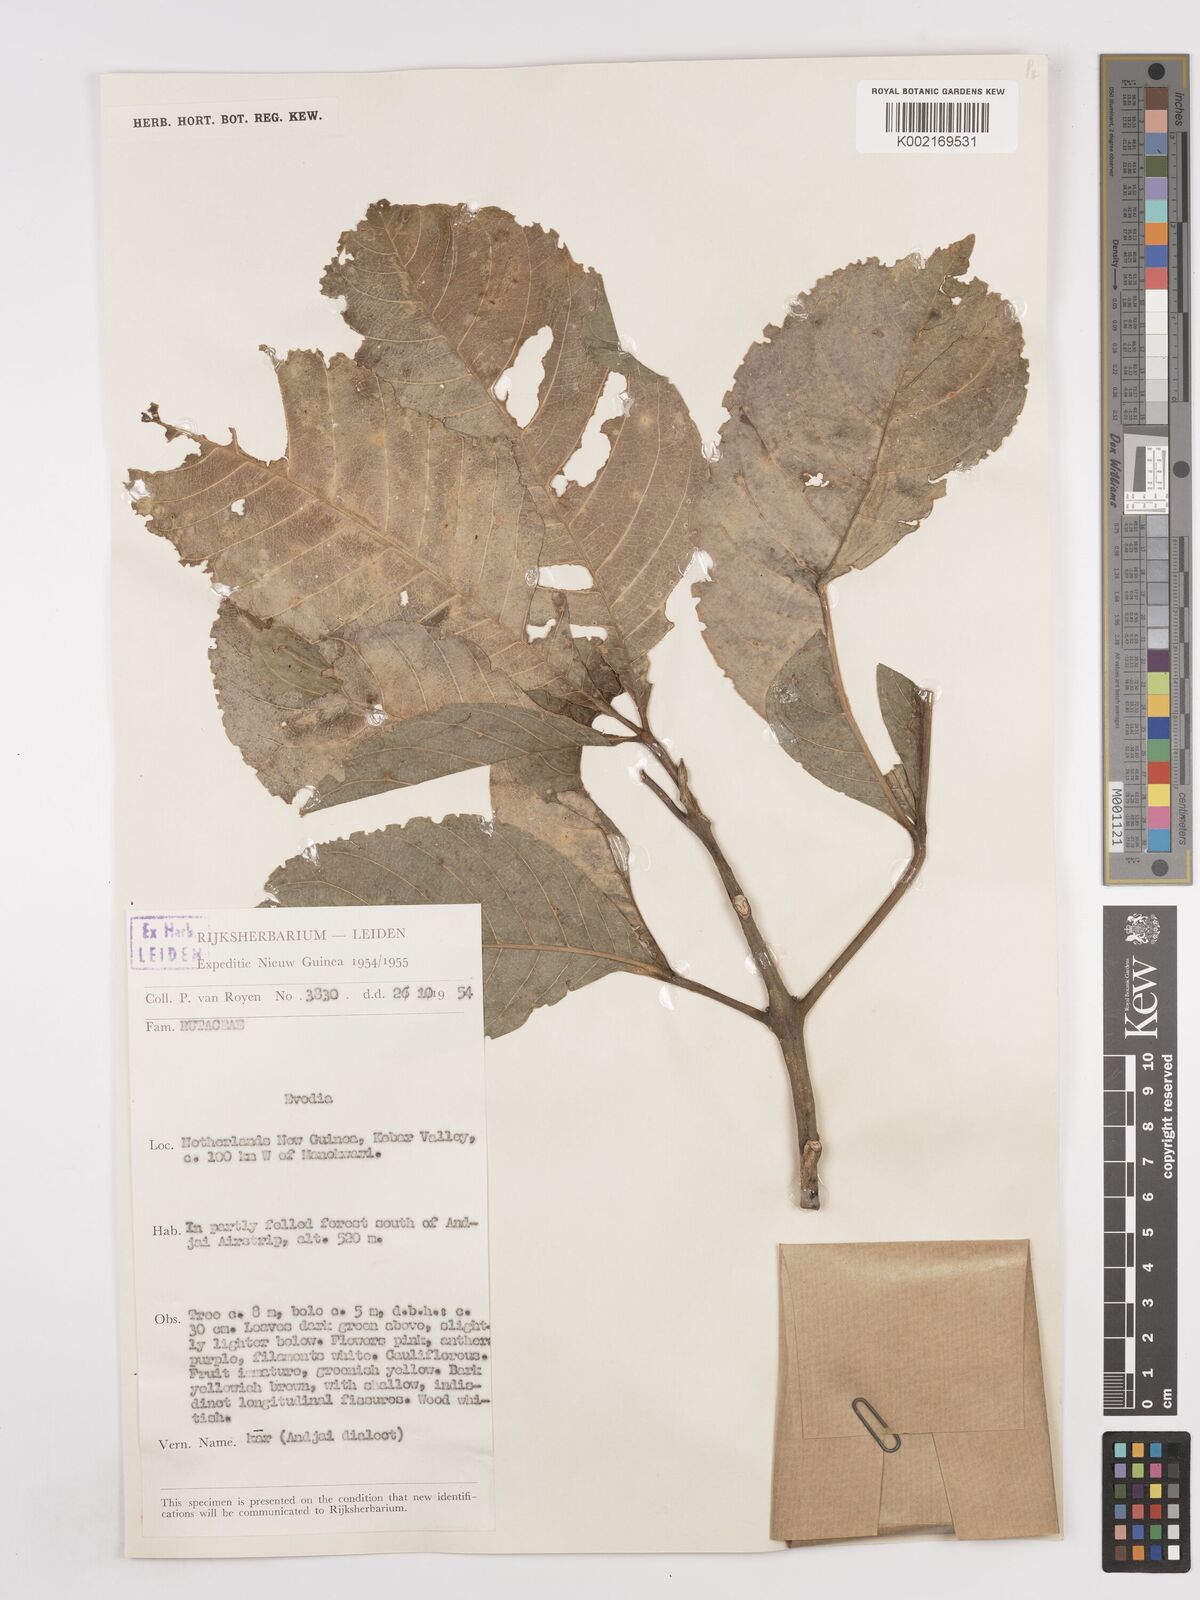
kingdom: Plantae
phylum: Tracheophyta
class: Magnoliopsida
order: Sapindales
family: Rutaceae
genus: Euodia
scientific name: Euodia
